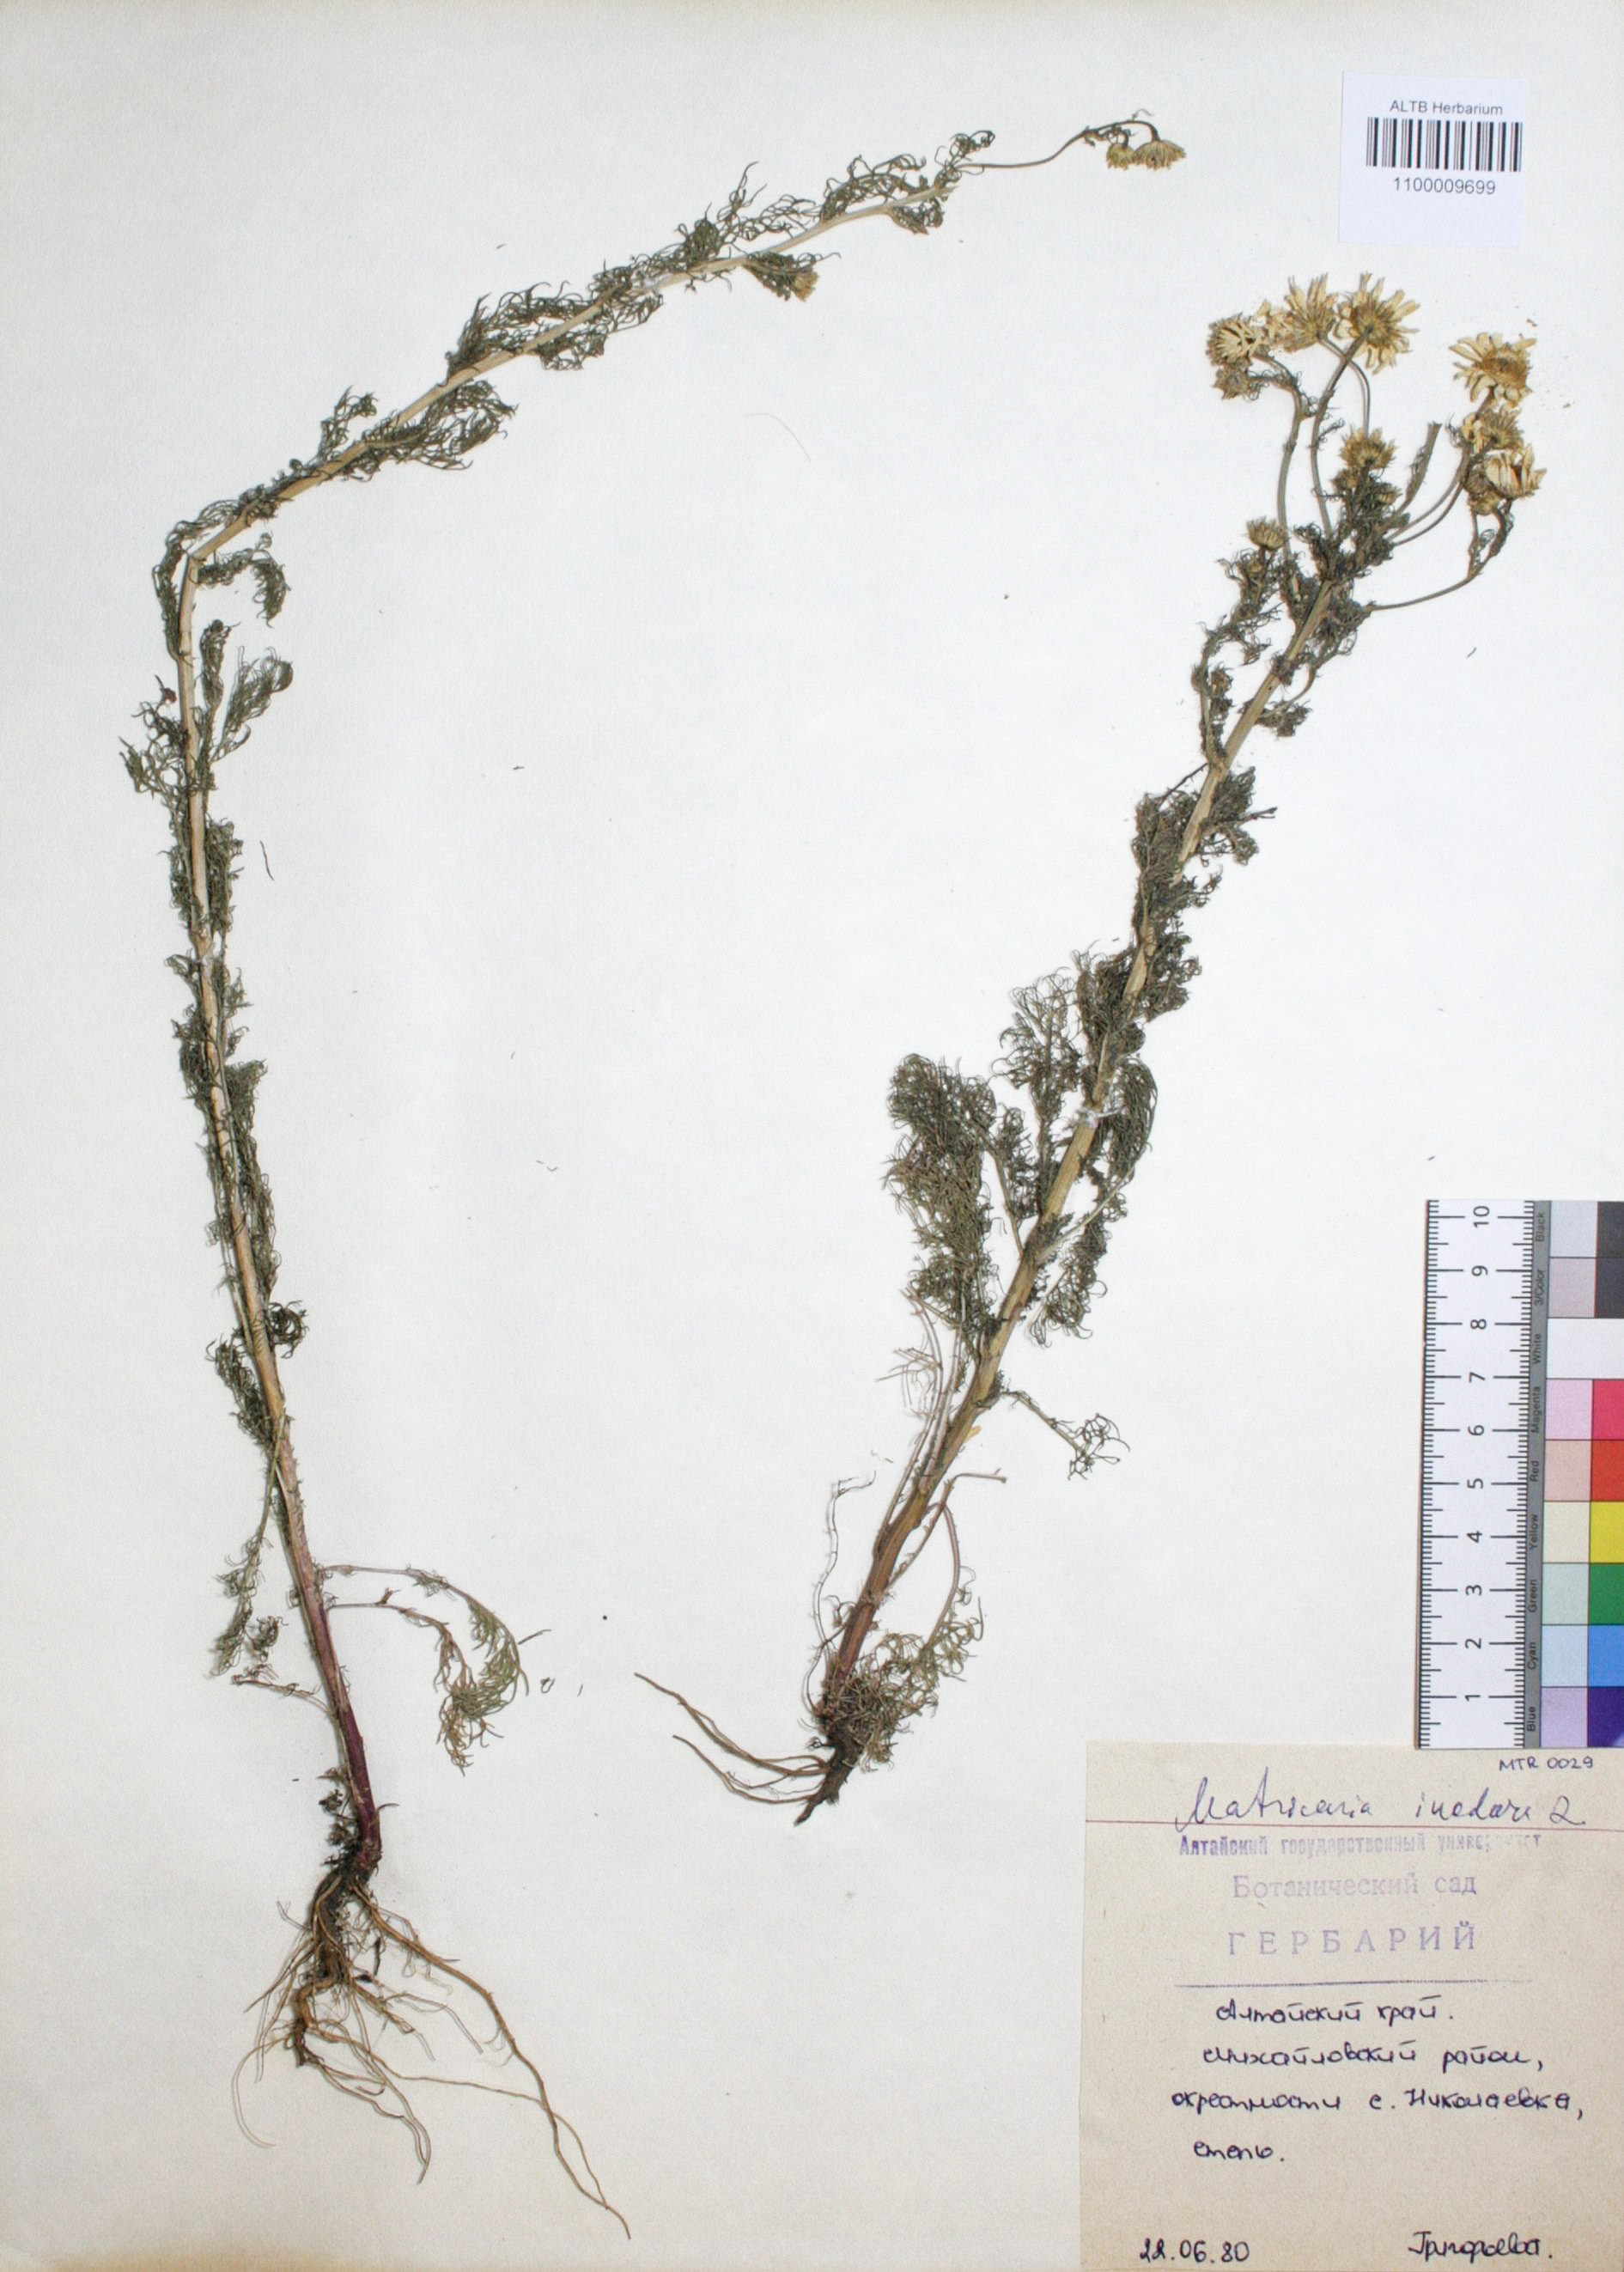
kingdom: Plantae
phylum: Tracheophyta
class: Magnoliopsida
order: Asterales
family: Asteraceae
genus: Tripleurospermum
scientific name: Tripleurospermum inodorum
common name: Scentless mayweed
